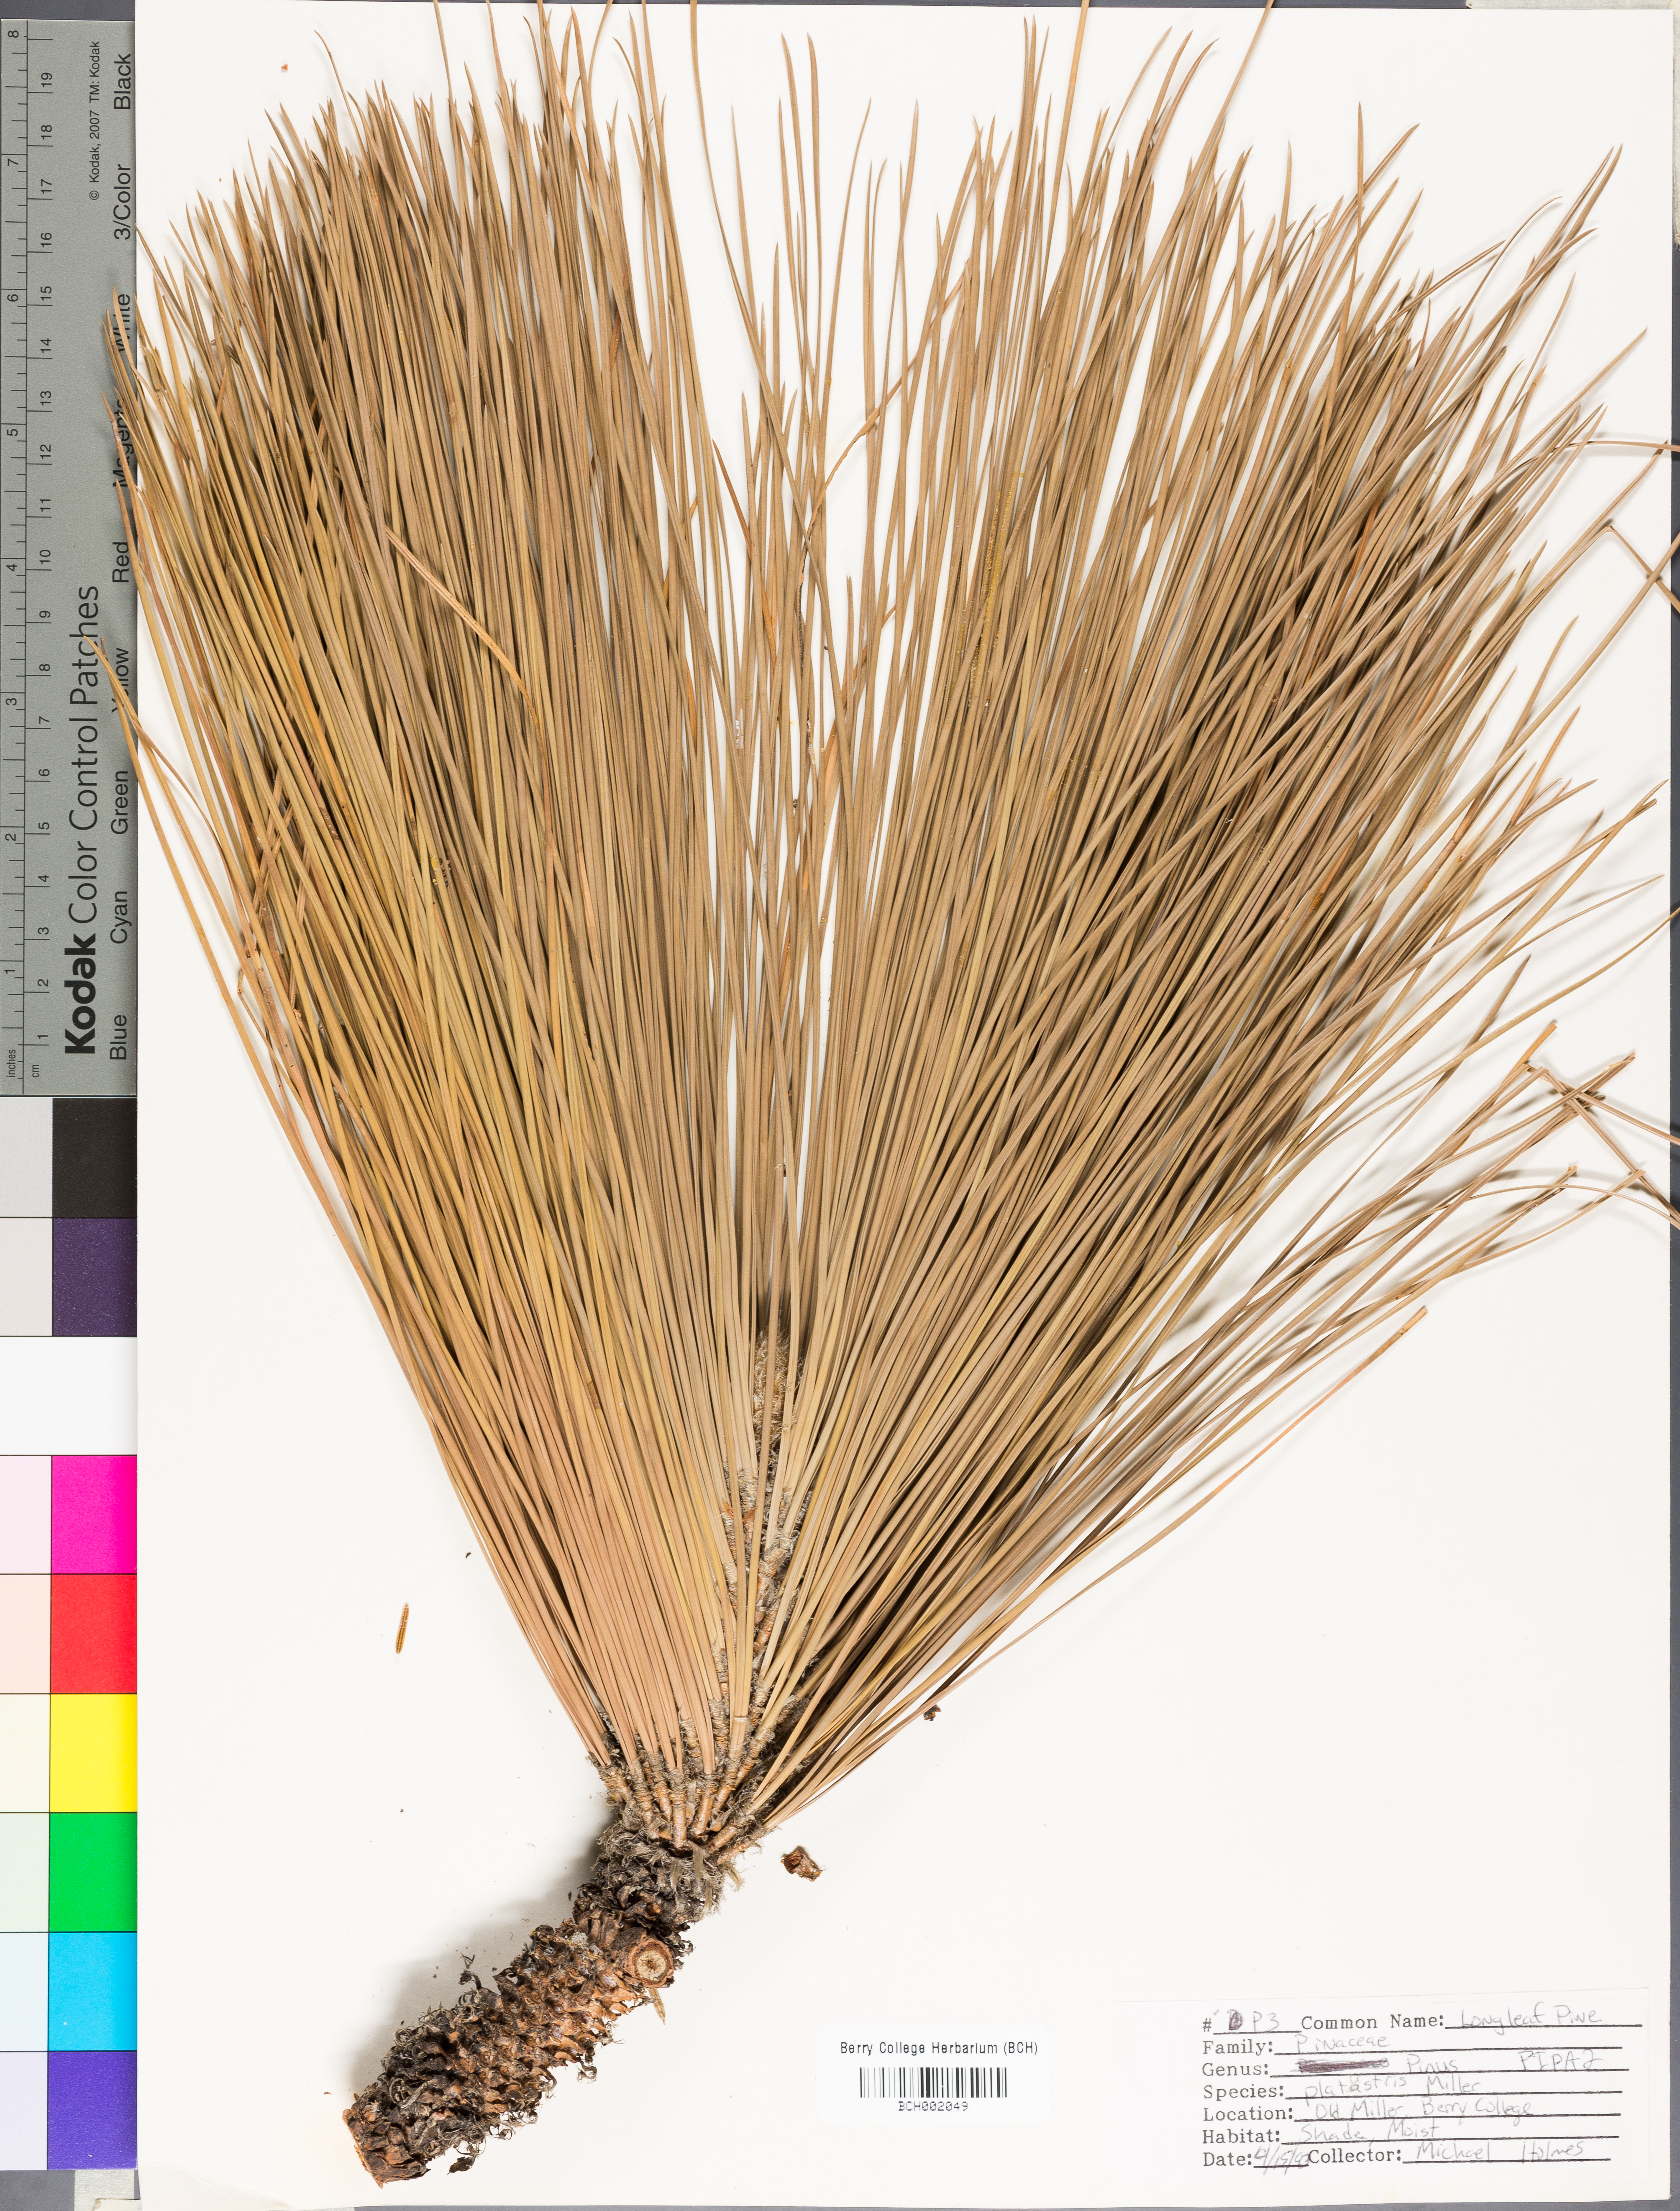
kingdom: Plantae
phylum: Tracheophyta
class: Pinopsida
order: Pinales
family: Pinaceae
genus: Pinus
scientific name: Pinus palustris
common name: Longleaf pine
